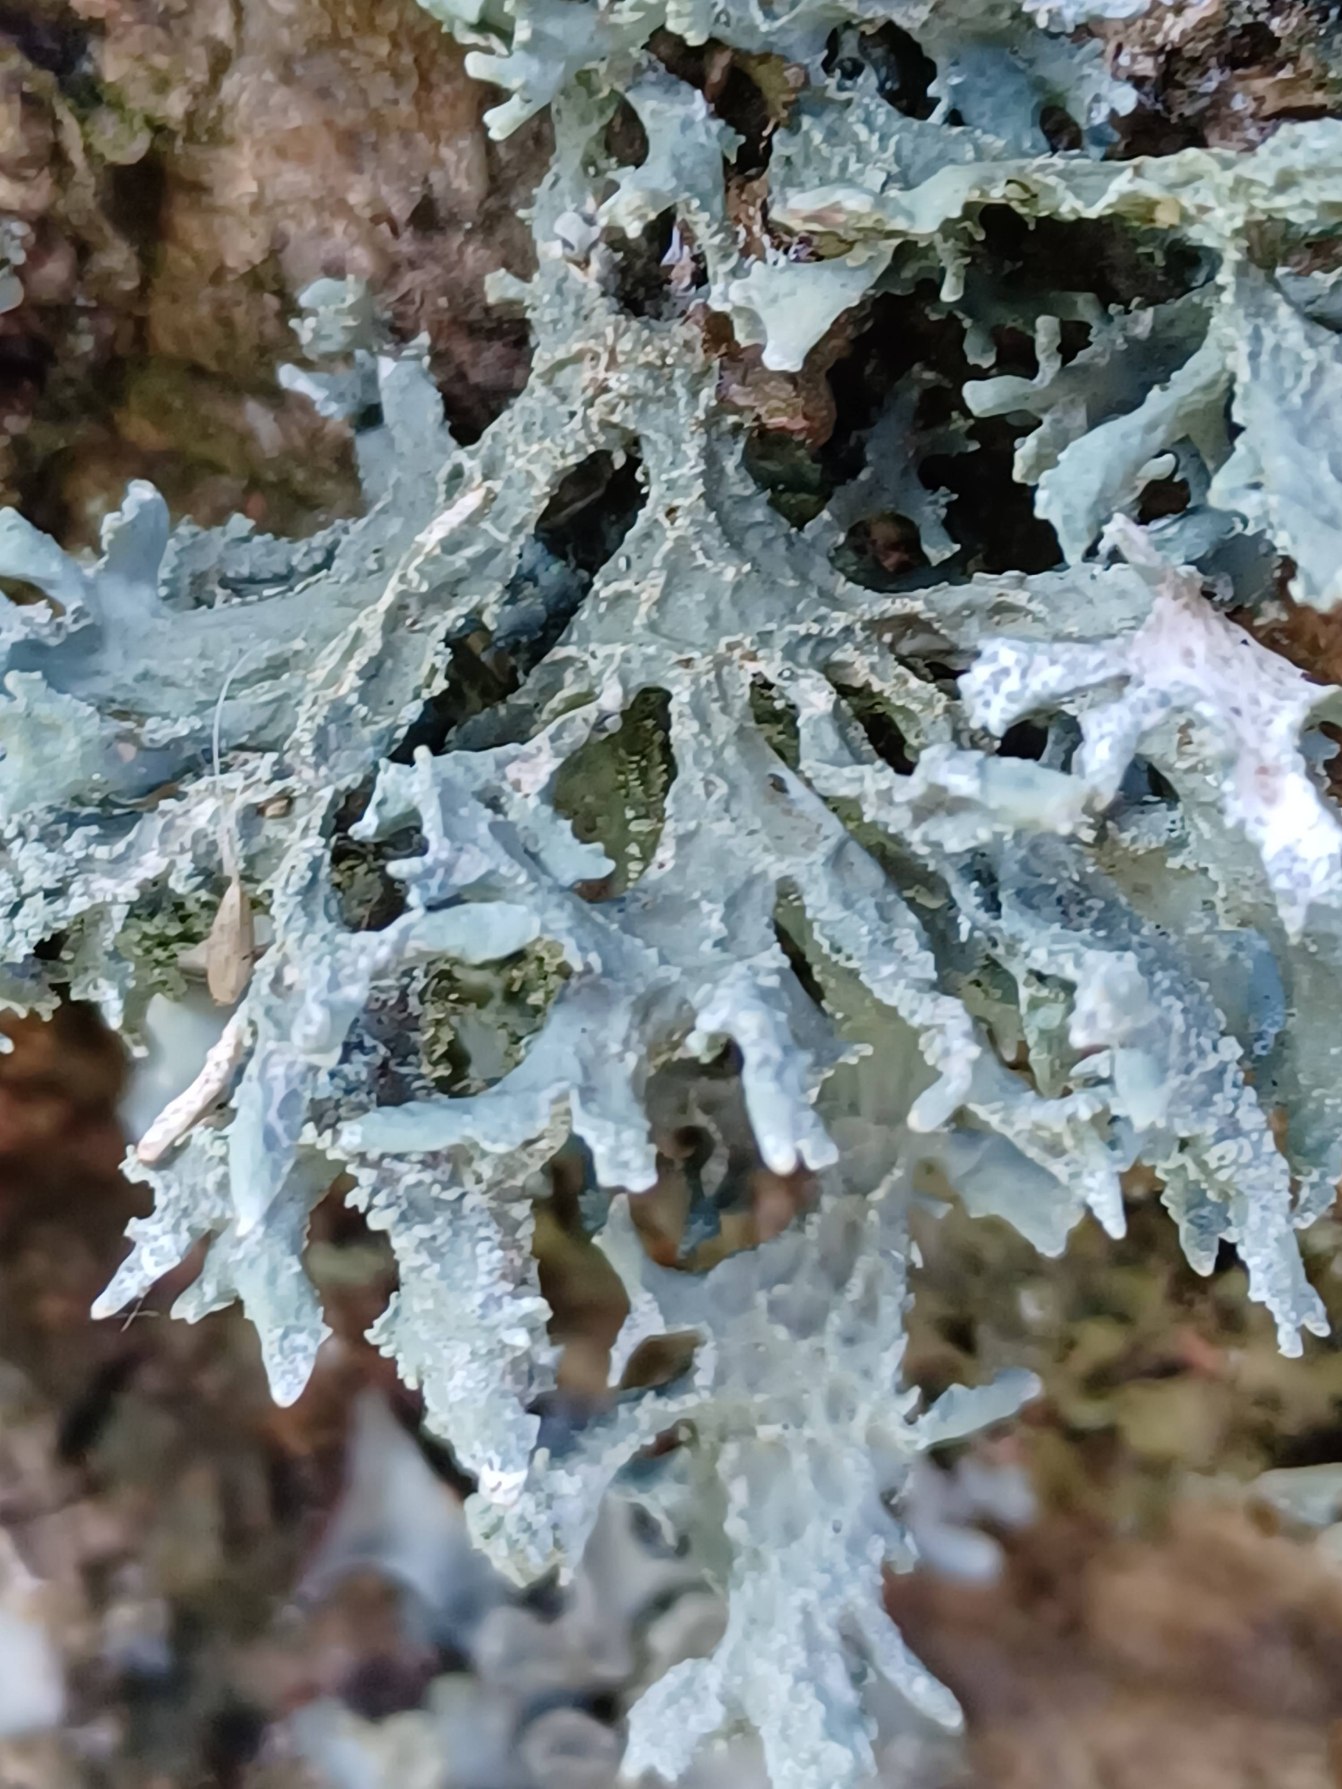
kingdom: Fungi
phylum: Ascomycota
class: Lecanoromycetes
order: Lecanorales
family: Parmeliaceae
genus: Evernia
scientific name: Evernia prunastri
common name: Almindelig slåenlav
